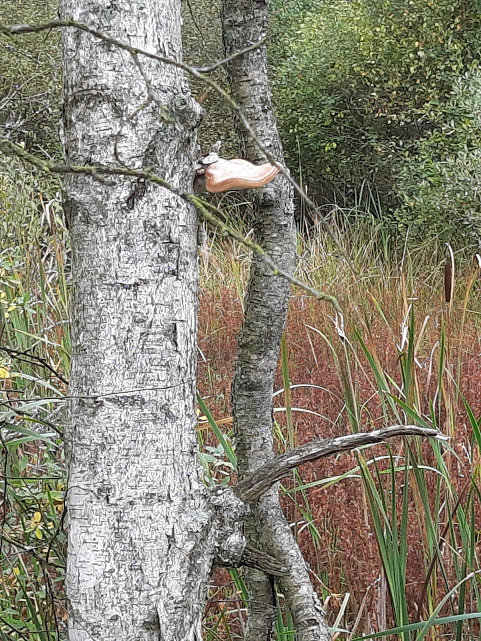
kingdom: Fungi
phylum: Basidiomycota
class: Agaricomycetes
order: Polyporales
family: Fomitopsidaceae
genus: Fomitopsis
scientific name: Fomitopsis betulina
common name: birkeporesvamp
